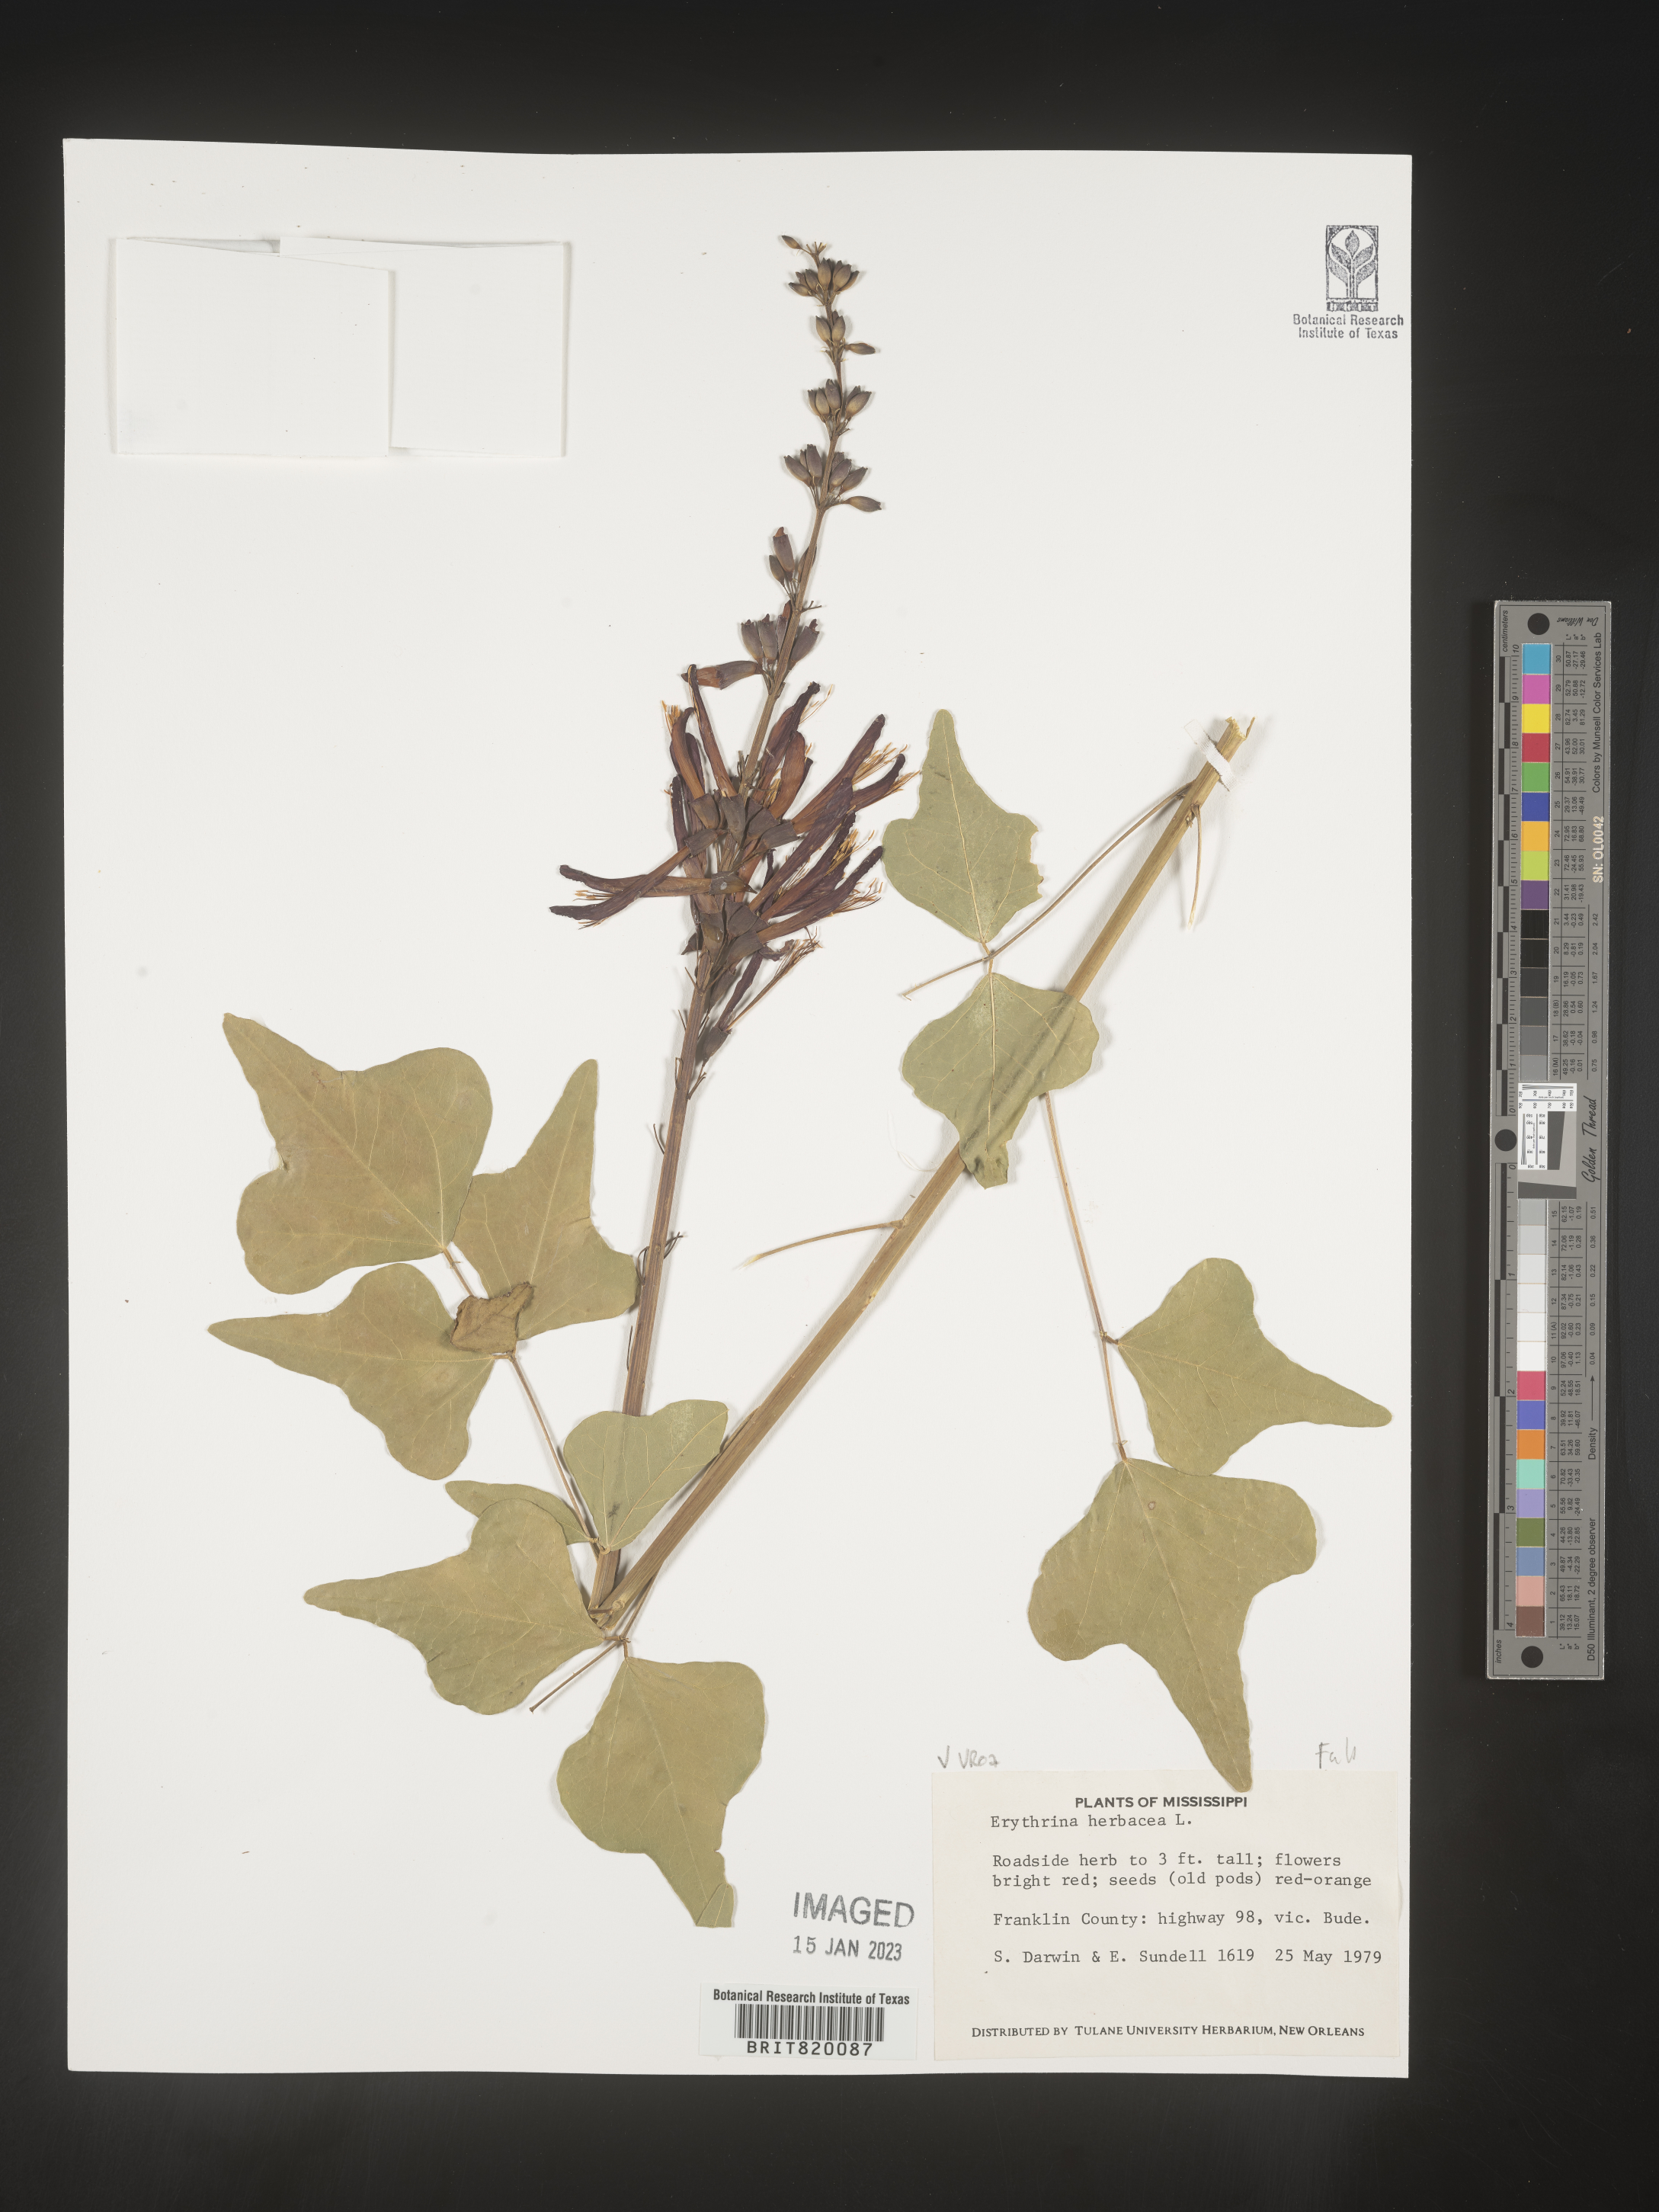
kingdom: Plantae
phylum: Tracheophyta
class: Magnoliopsida
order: Fabales
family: Fabaceae
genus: Erythrina
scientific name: Erythrina herbacea
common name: Coral-bean
